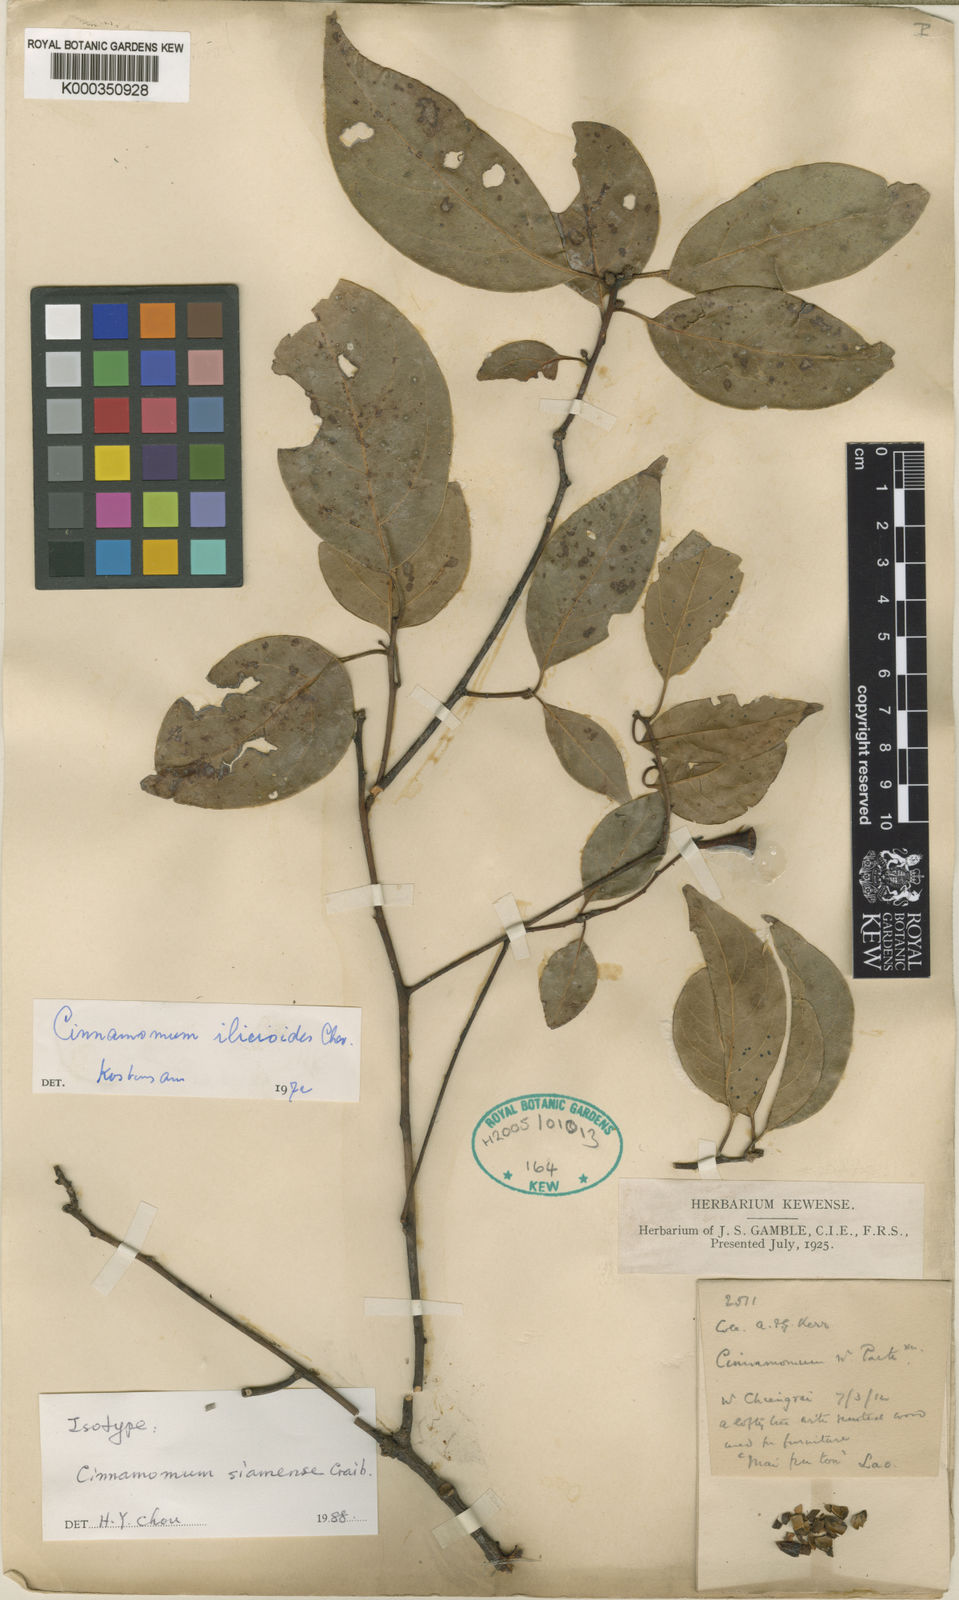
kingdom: Plantae
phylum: Tracheophyta
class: Magnoliopsida
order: Laurales
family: Lauraceae
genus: Cinnamomum
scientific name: Cinnamomum glaucescens
